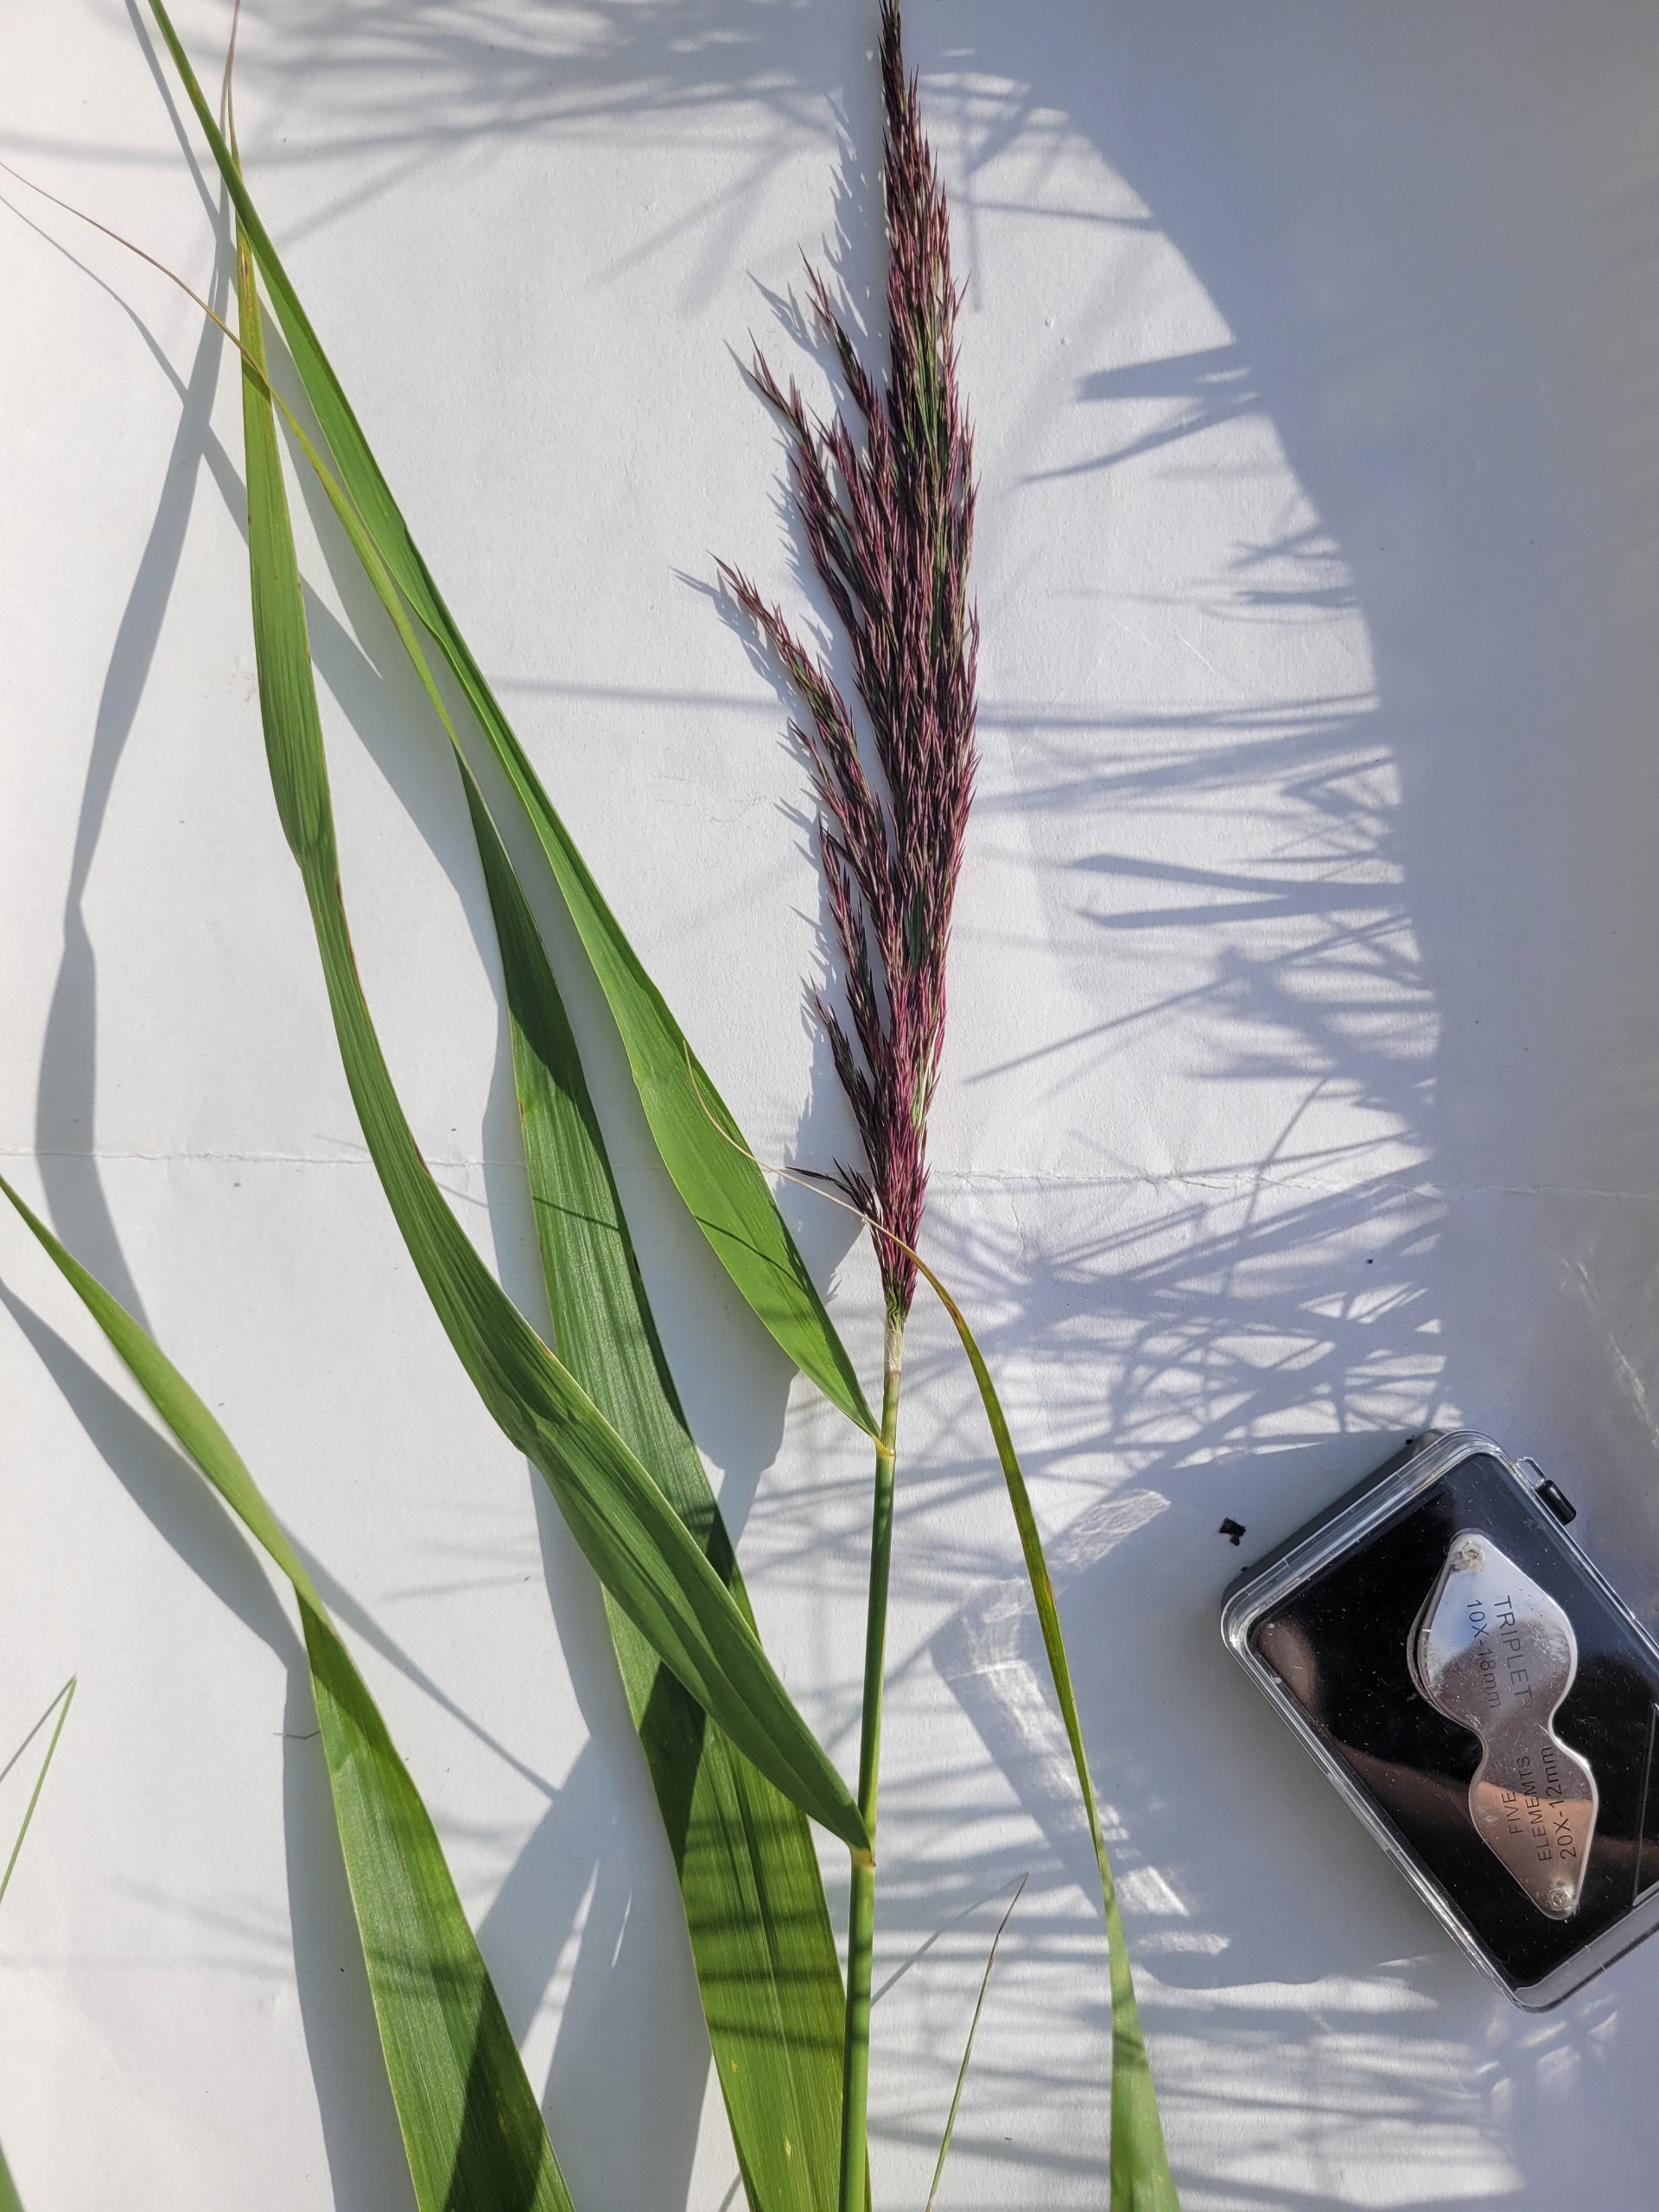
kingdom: Plantae
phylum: Tracheophyta
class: Liliopsida
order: Poales
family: Poaceae
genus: Phragmites
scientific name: Phragmites australis
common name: Tagrør
